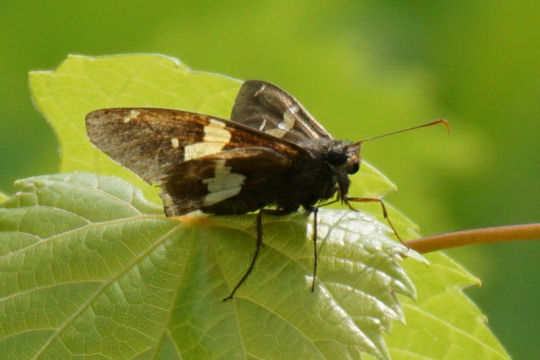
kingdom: Animalia
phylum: Arthropoda
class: Insecta
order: Lepidoptera
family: Hesperiidae
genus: Epargyreus
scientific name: Epargyreus clarus
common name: Silver-spotted Skipper
